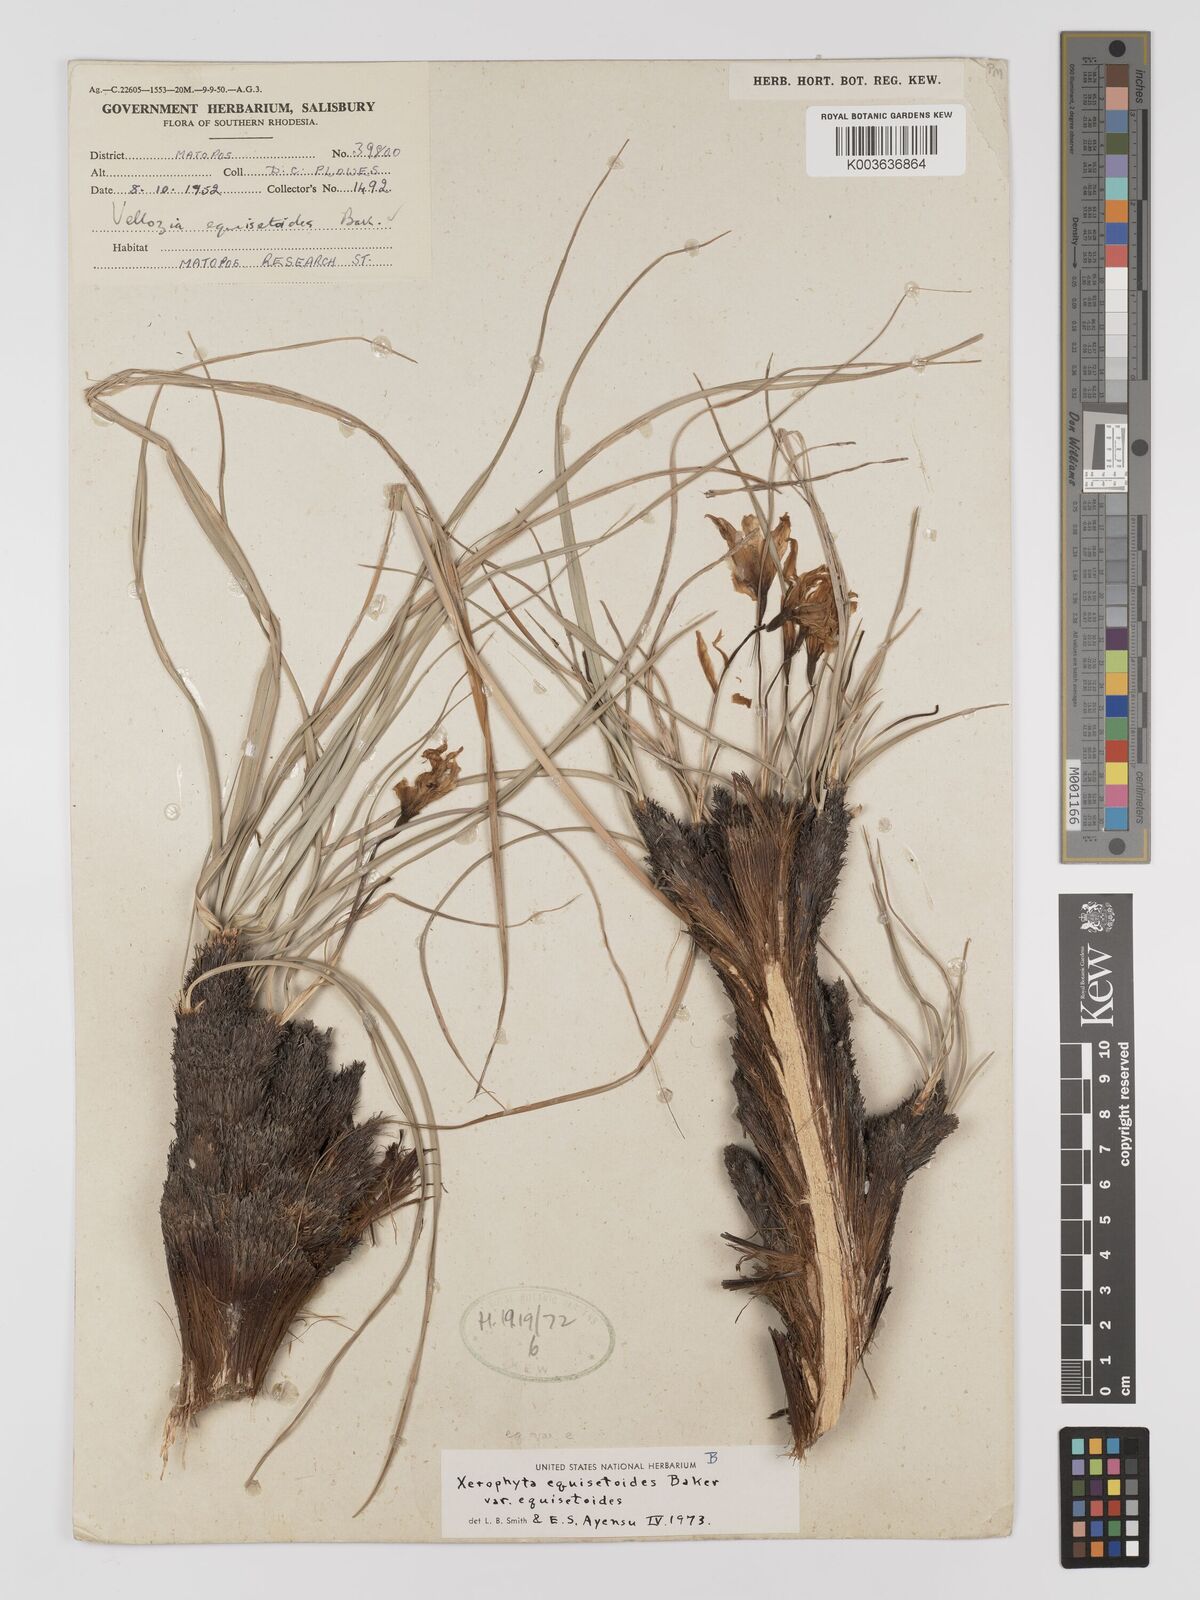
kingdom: Plantae
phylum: Tracheophyta
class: Liliopsida
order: Pandanales
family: Velloziaceae
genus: Xerophyta
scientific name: Xerophyta equisetoides
